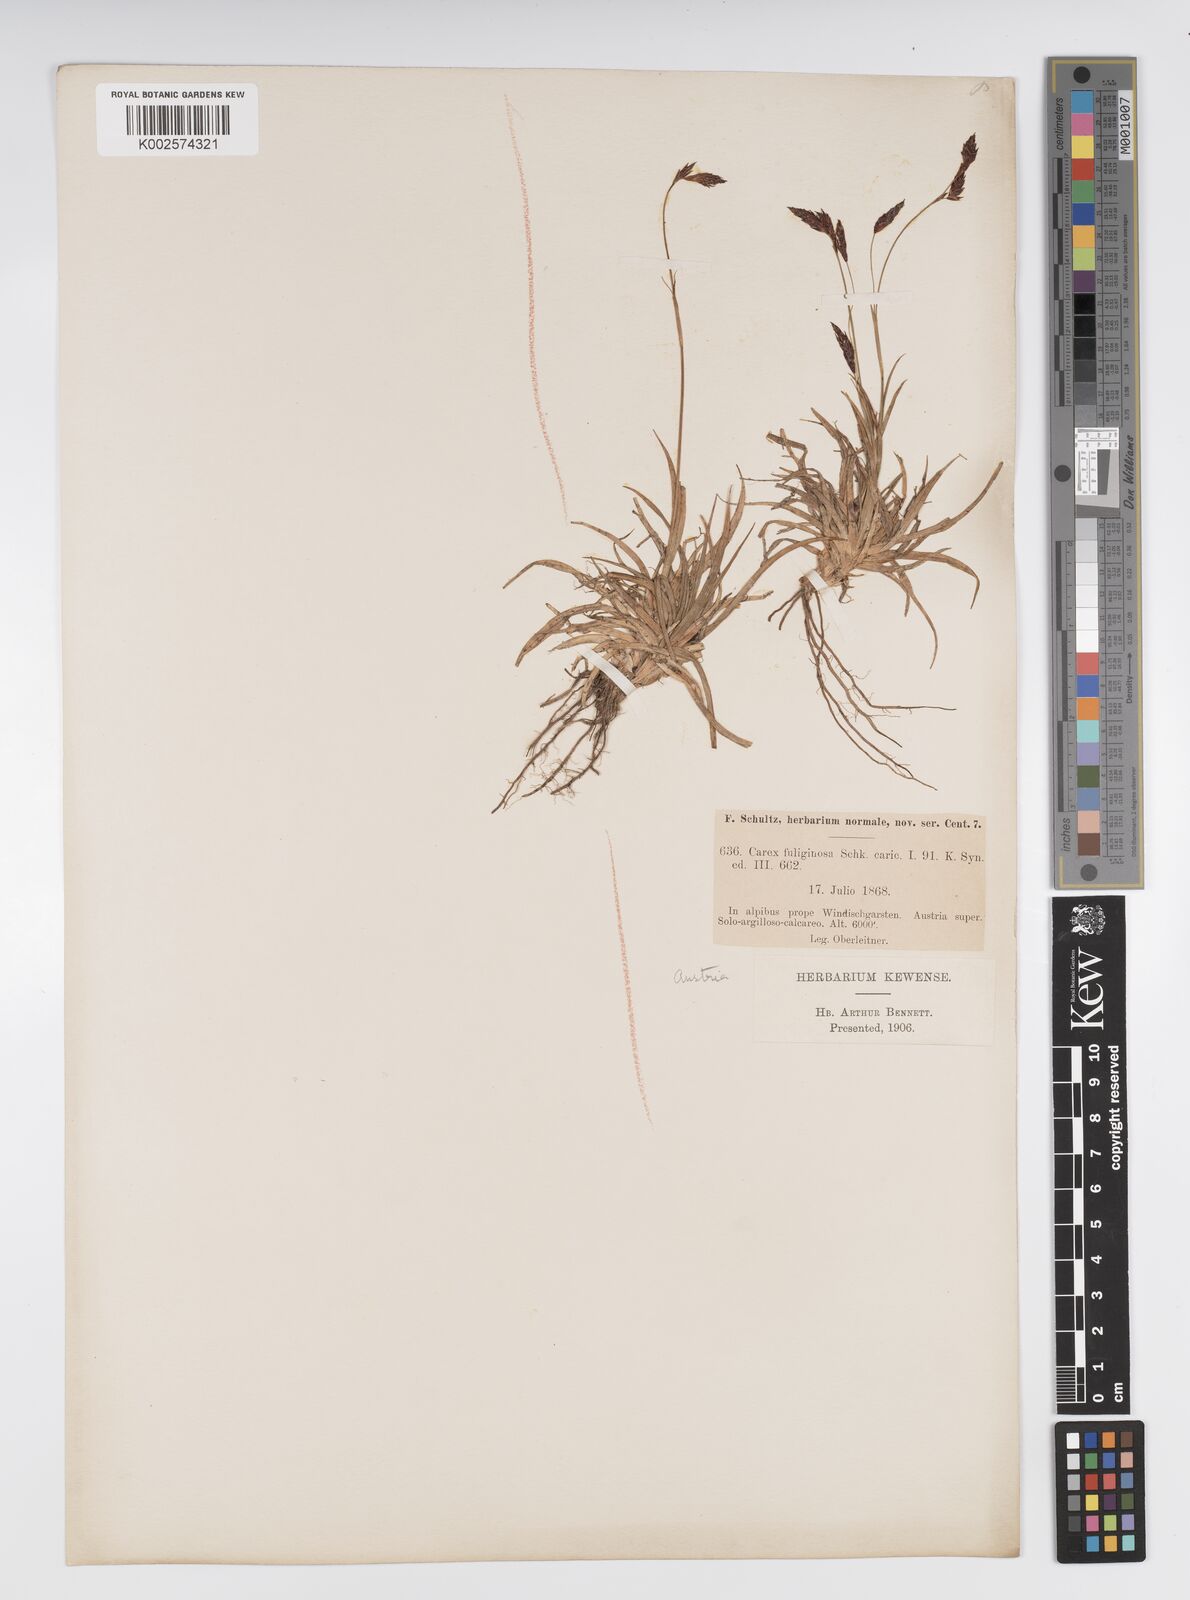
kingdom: Plantae
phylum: Tracheophyta
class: Liliopsida
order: Poales
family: Cyperaceae
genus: Carex
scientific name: Carex fuliginosa
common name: Few-flowered sedge
